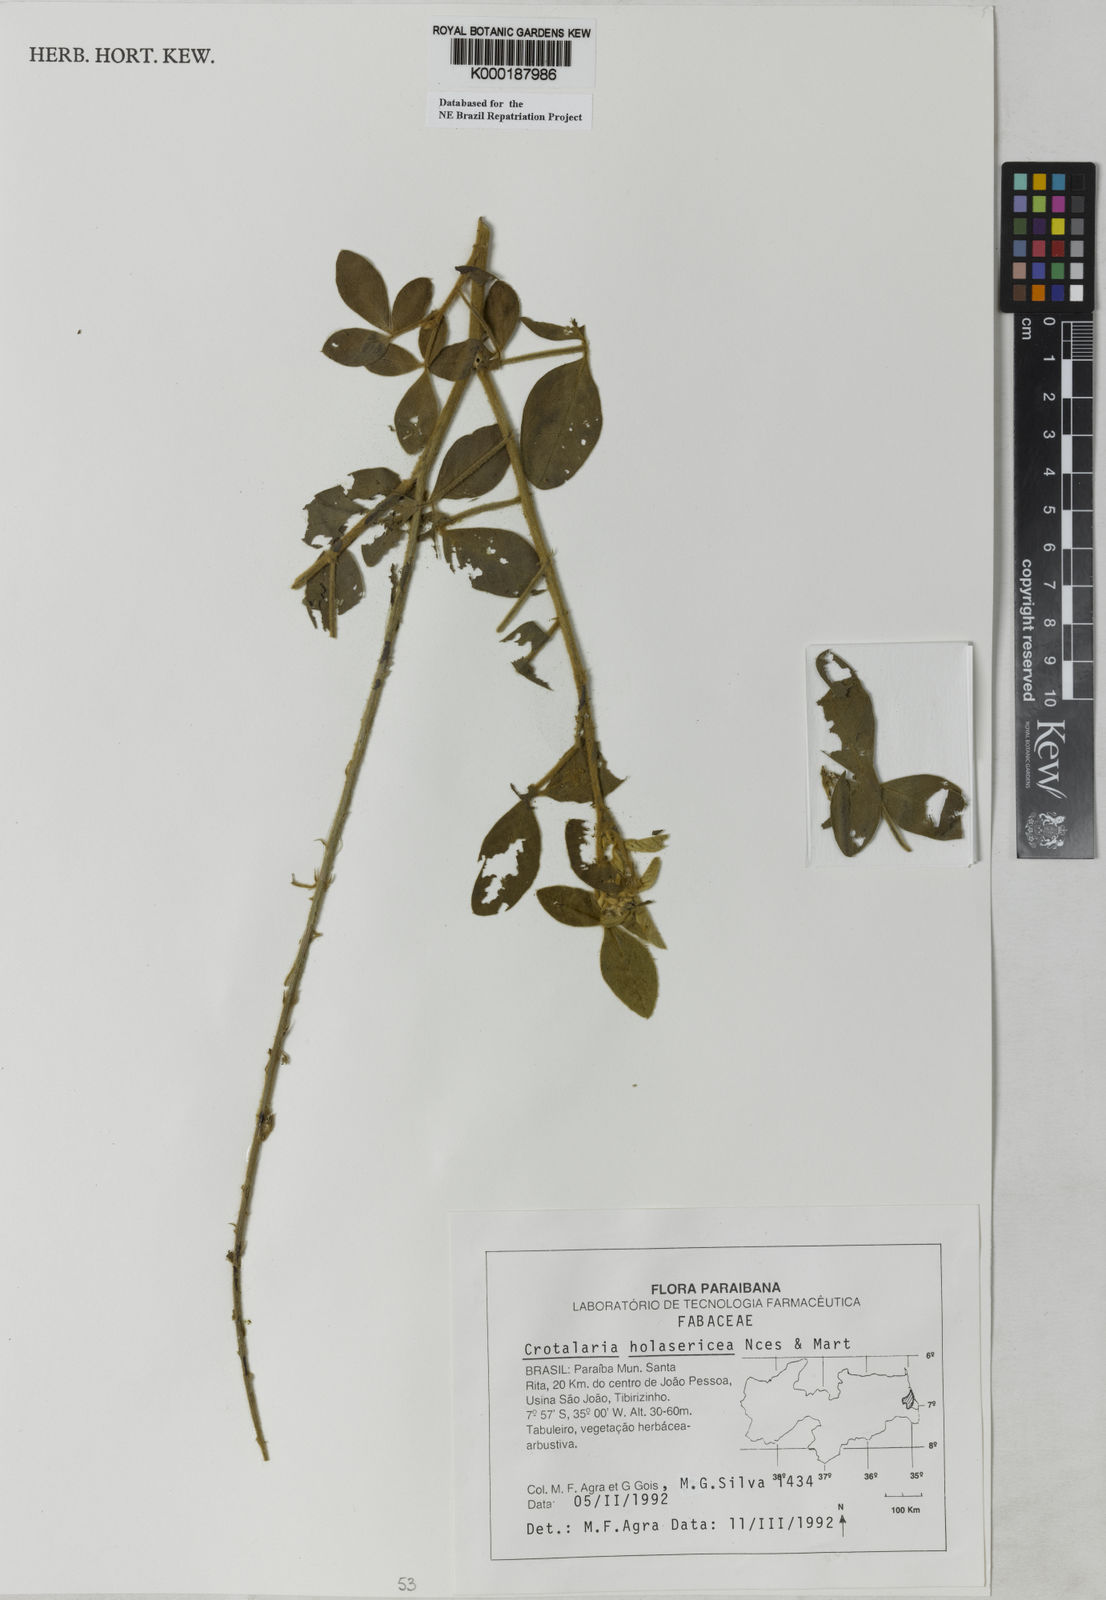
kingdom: Plantae
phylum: Tracheophyta
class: Magnoliopsida
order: Fabales
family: Fabaceae
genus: Crotalaria
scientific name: Crotalaria holosericea
